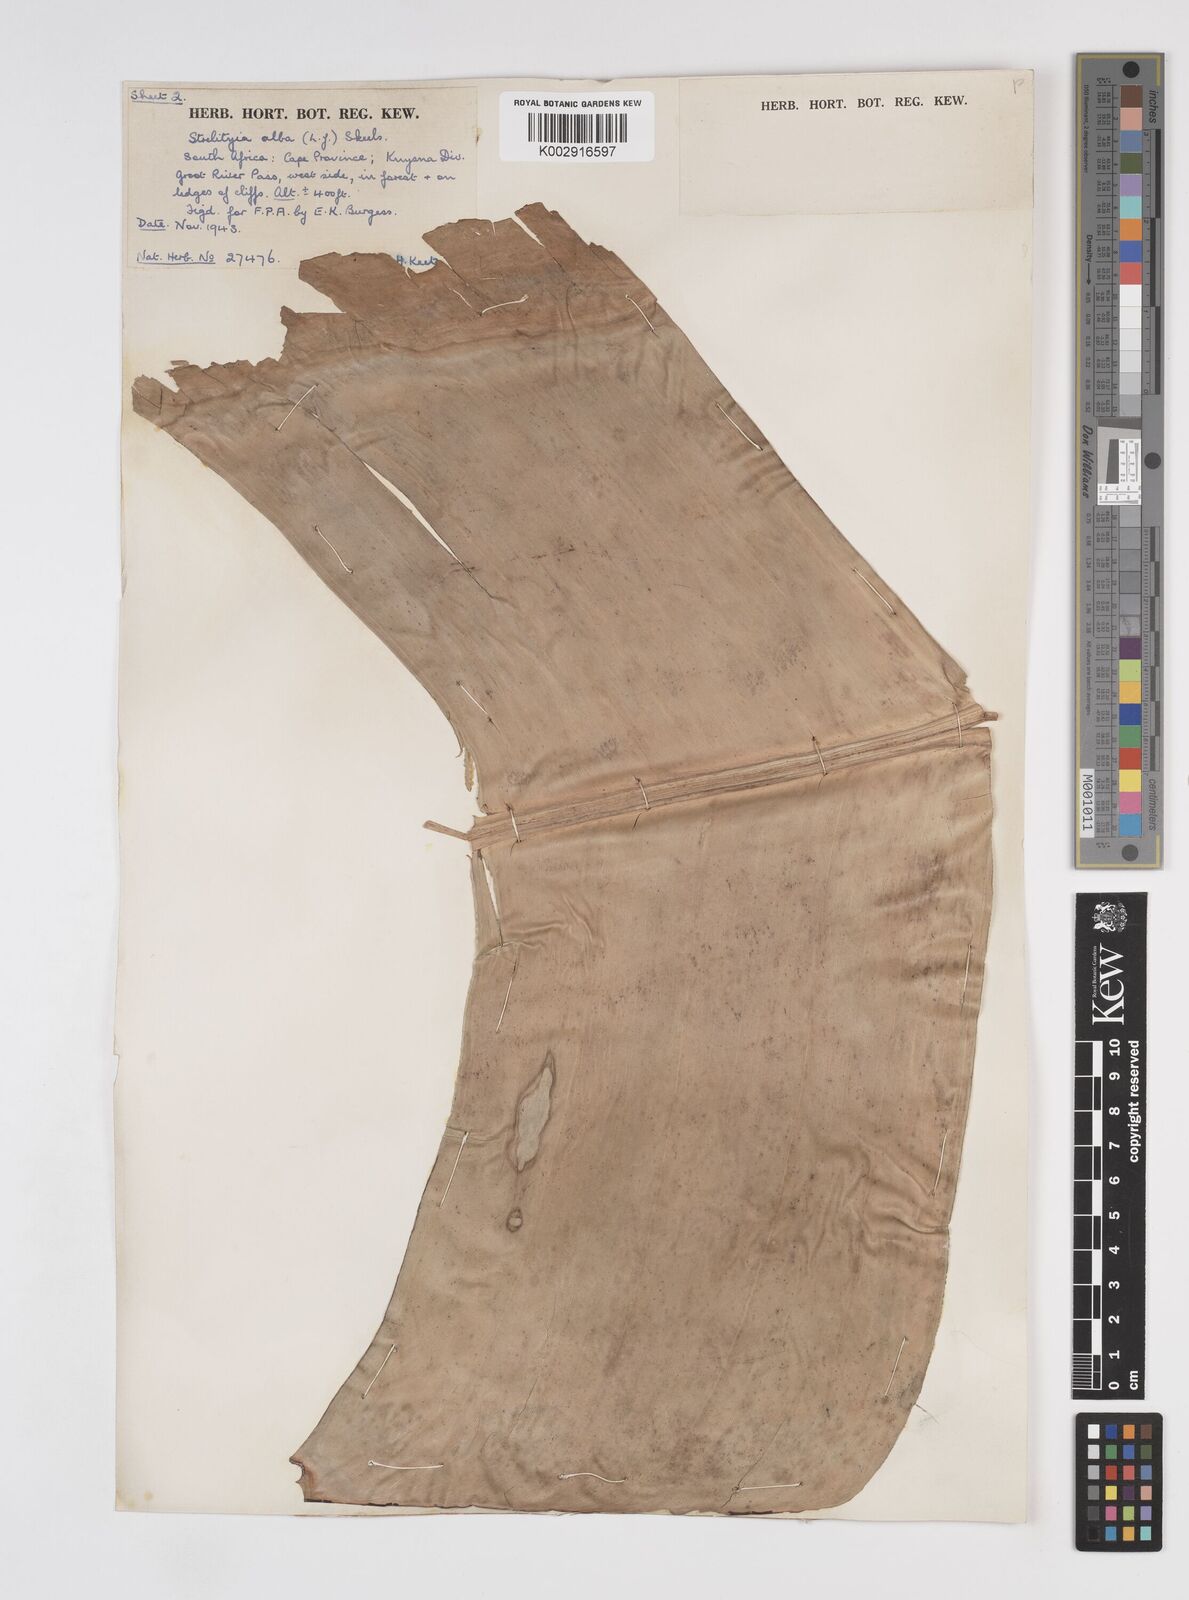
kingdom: Plantae
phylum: Tracheophyta
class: Liliopsida
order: Zingiberales
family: Strelitziaceae
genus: Strelitzia
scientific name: Strelitzia alba
